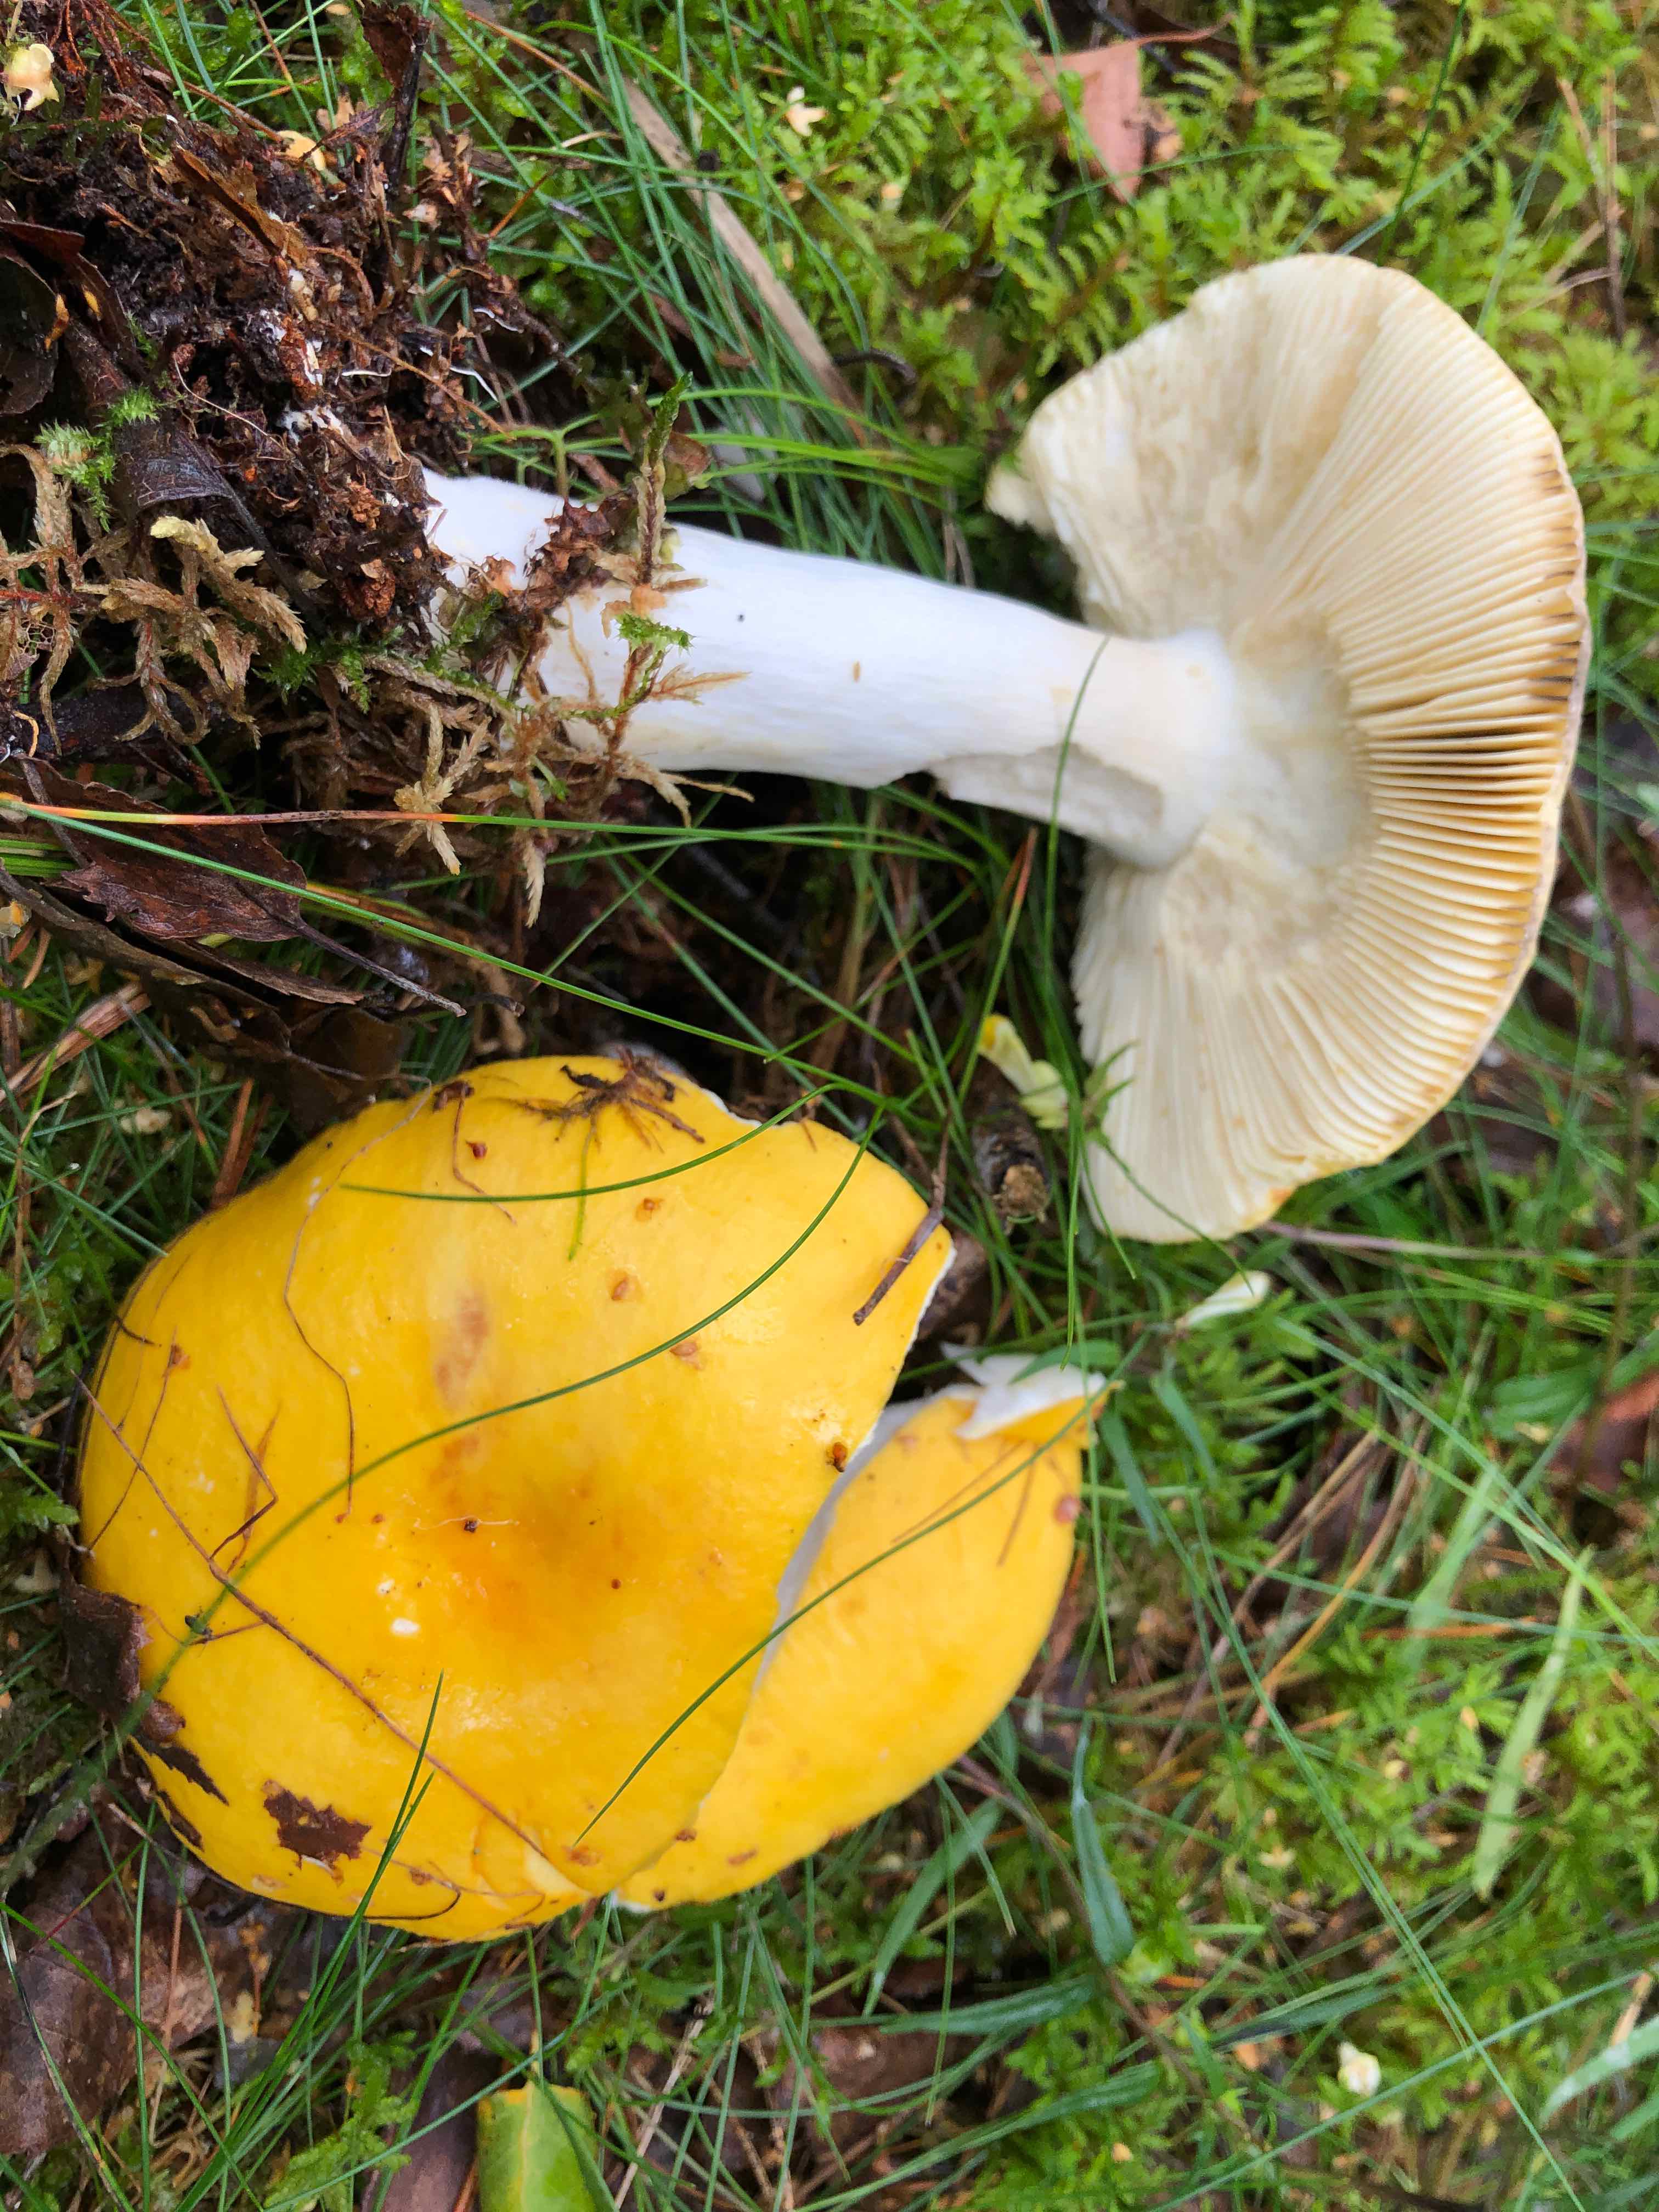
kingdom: Fungi
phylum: Basidiomycota
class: Agaricomycetes
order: Russulales
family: Russulaceae
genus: Russula
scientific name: Russula claroflava
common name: birke-skørhat
